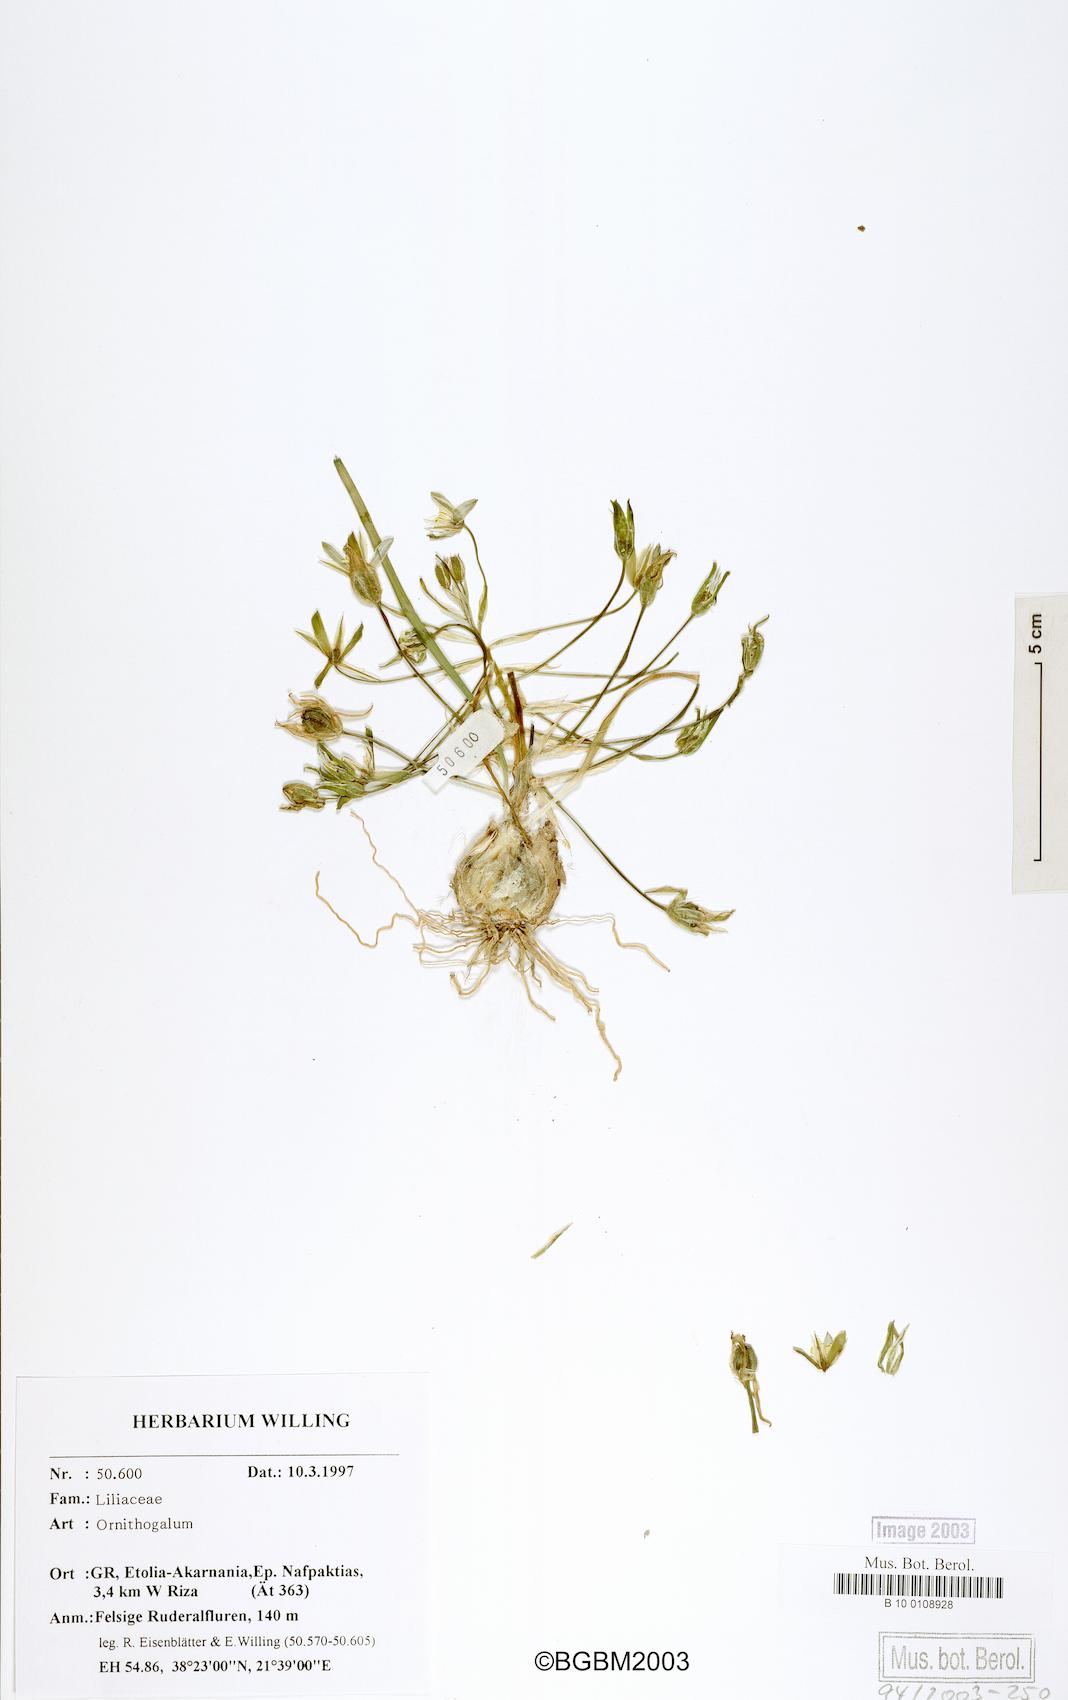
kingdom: Plantae
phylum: Tracheophyta
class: Liliopsida
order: Asparagales
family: Asparagaceae
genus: Ornithogalum
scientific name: Ornithogalum
